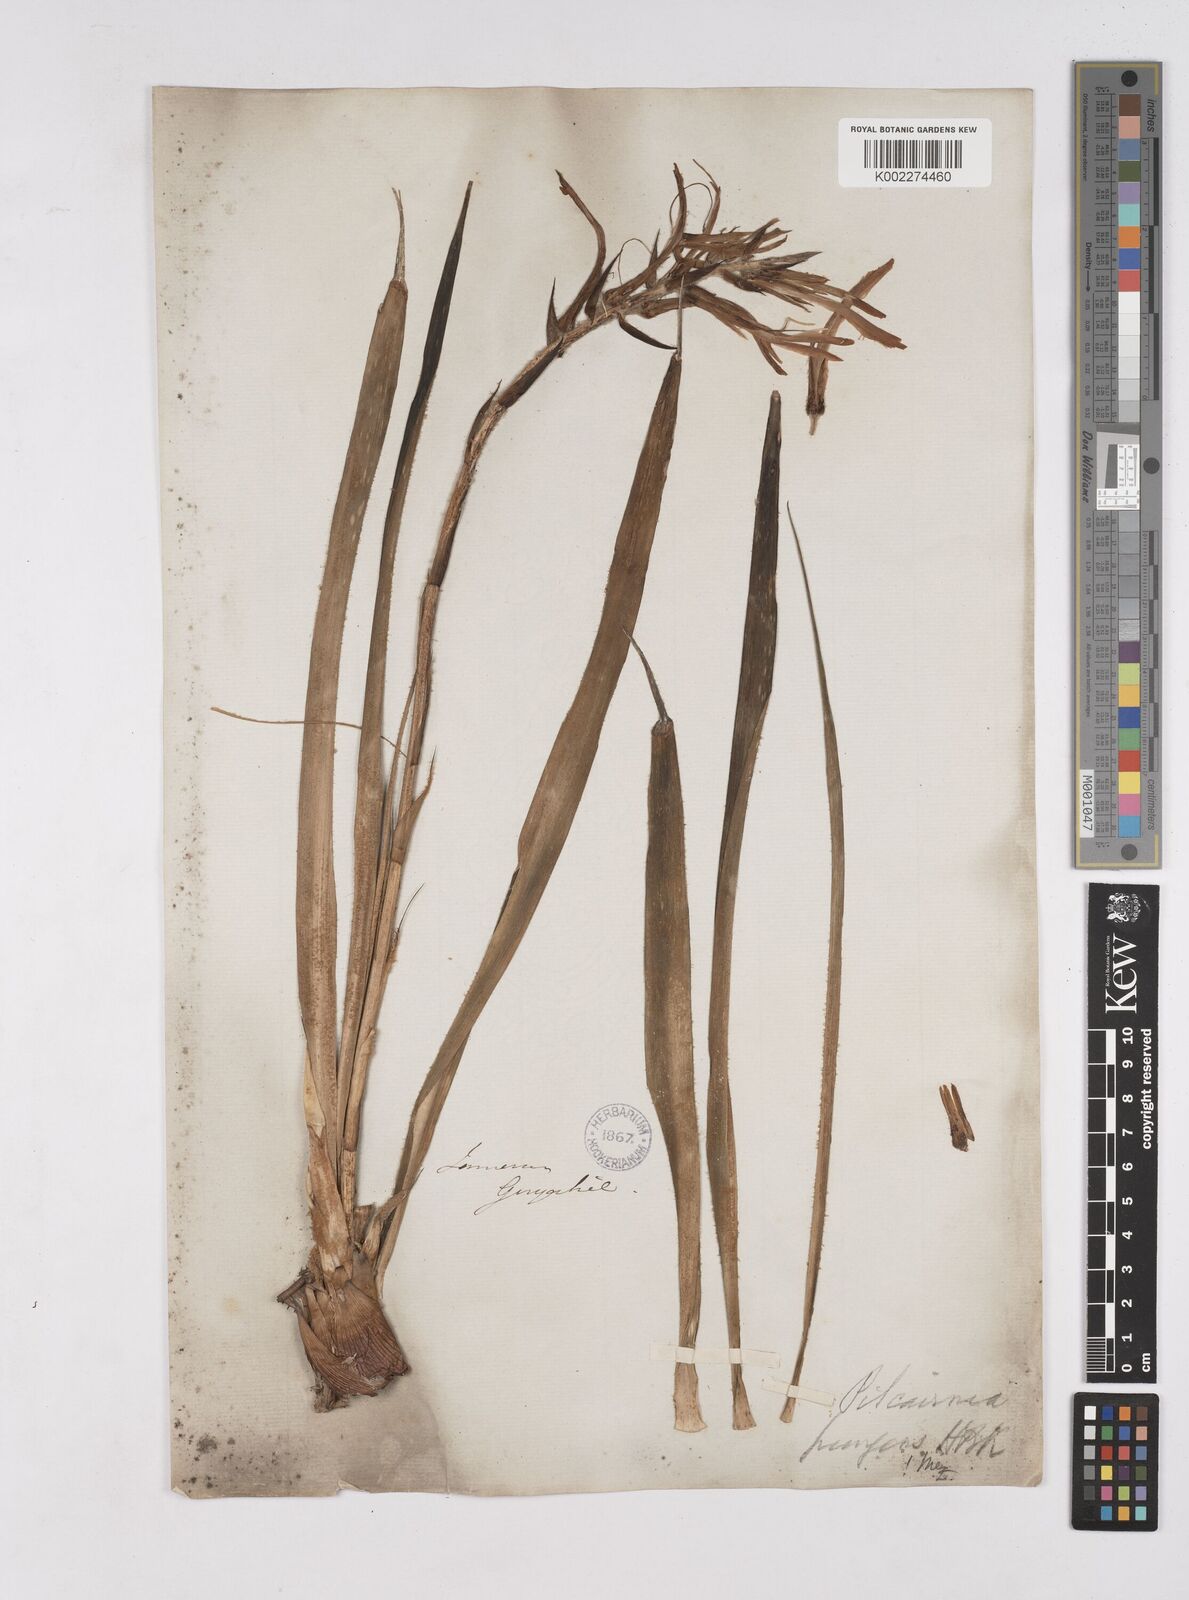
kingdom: Plantae
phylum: Tracheophyta
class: Liliopsida
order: Poales
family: Bromeliaceae
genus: Pitcairnia
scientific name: Pitcairnia pungens
